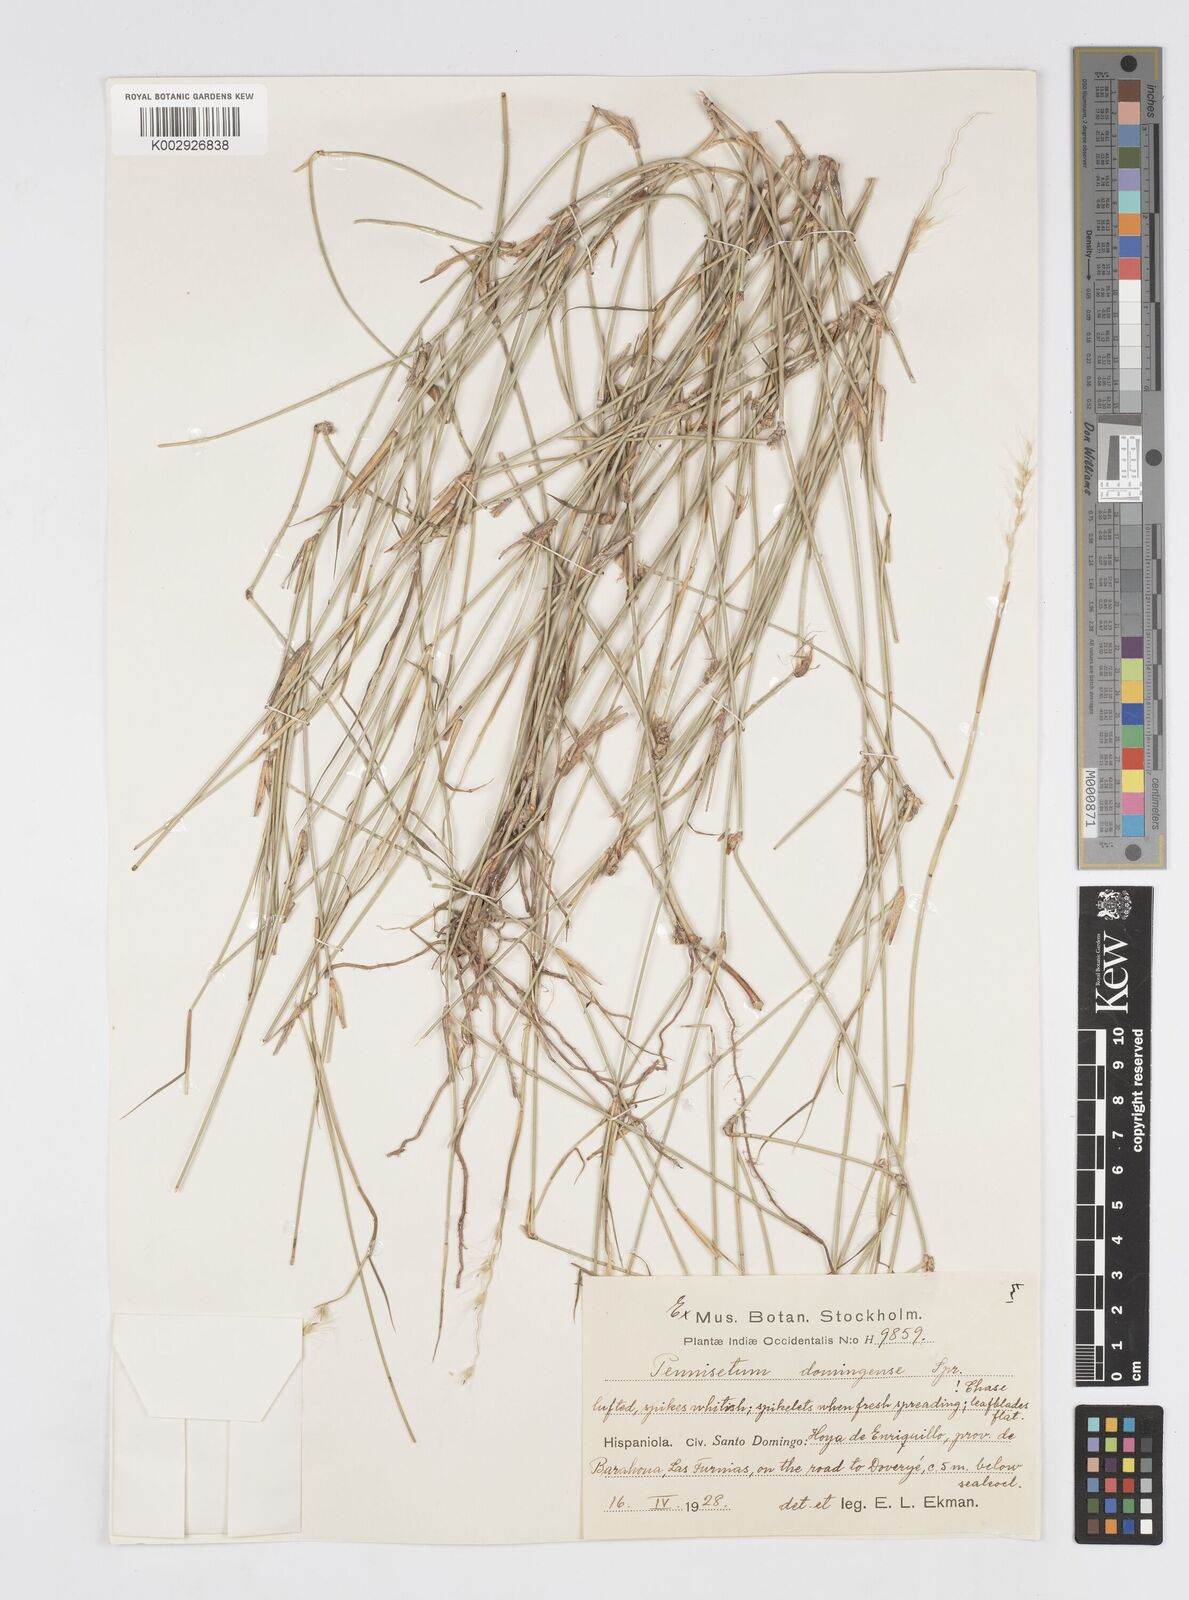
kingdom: Plantae
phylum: Tracheophyta
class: Liliopsida
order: Poales
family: Poaceae
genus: Cenchrus
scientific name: Cenchrus domingensis
